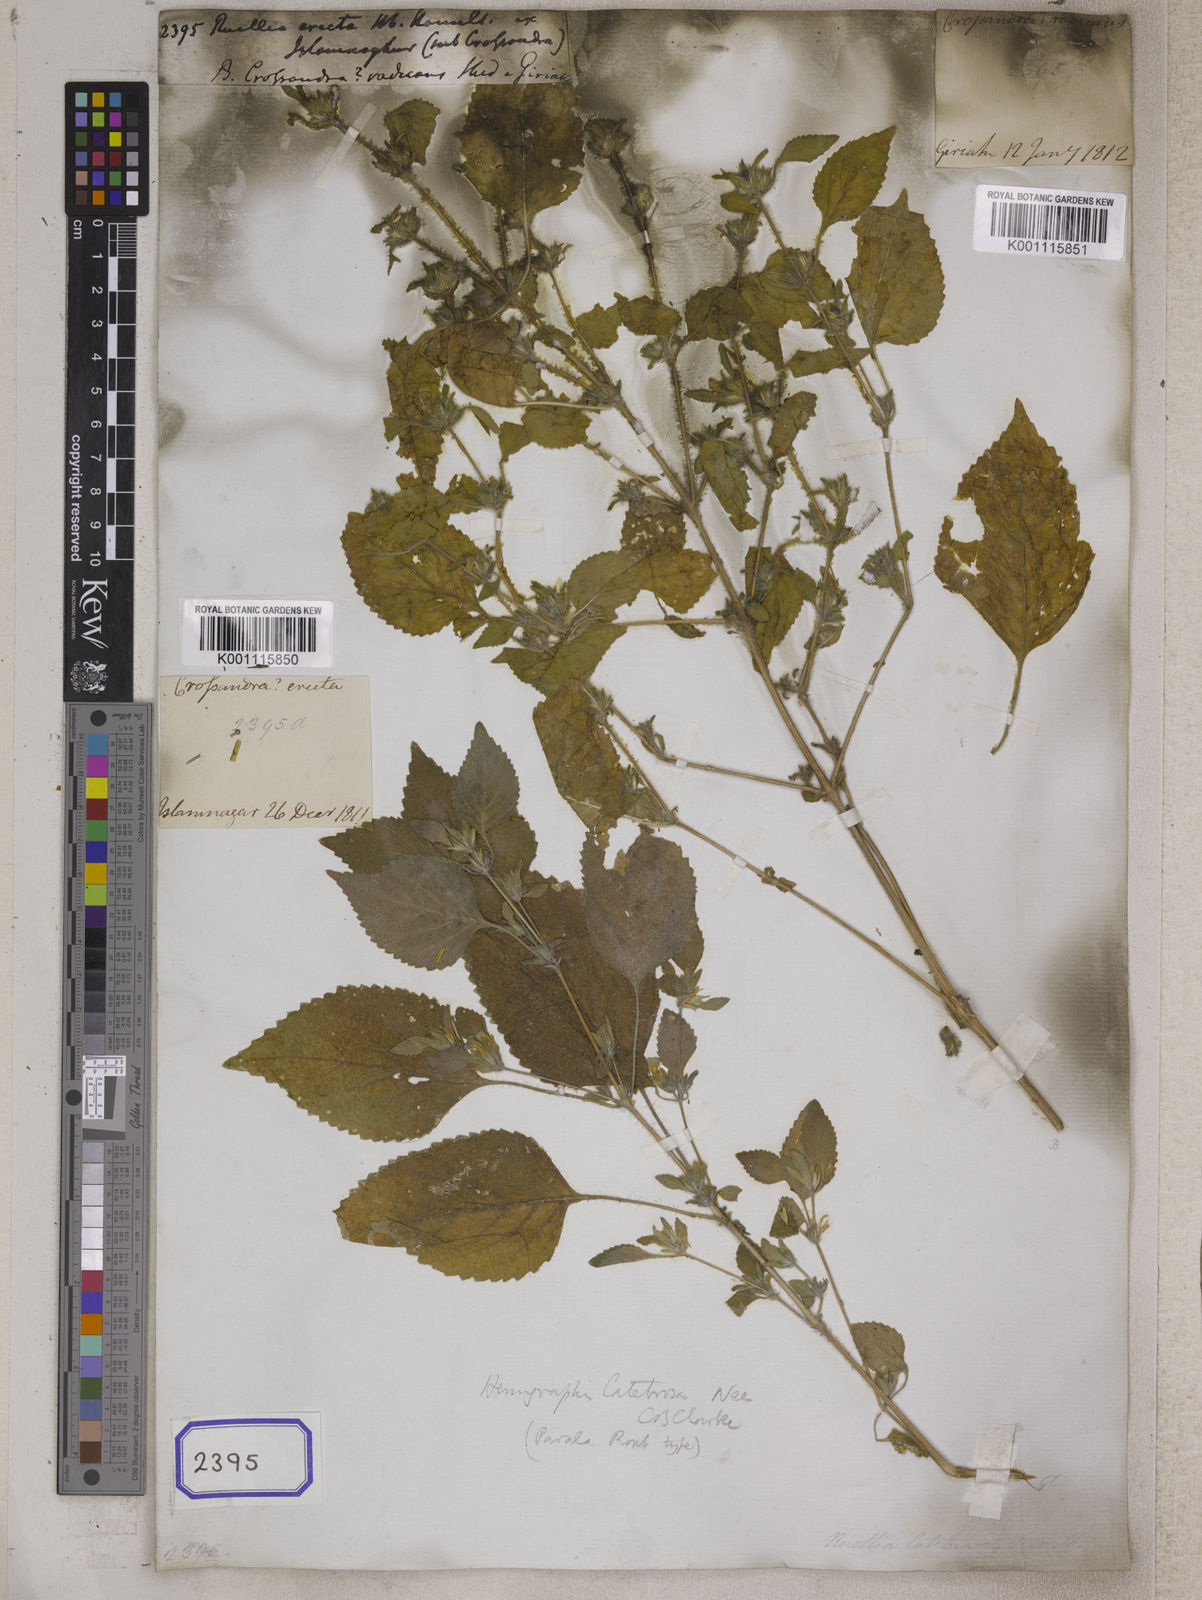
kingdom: Plantae
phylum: Tracheophyta
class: Magnoliopsida
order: Lamiales
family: Acanthaceae
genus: Strobilanthes
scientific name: Strobilanthes pavala
